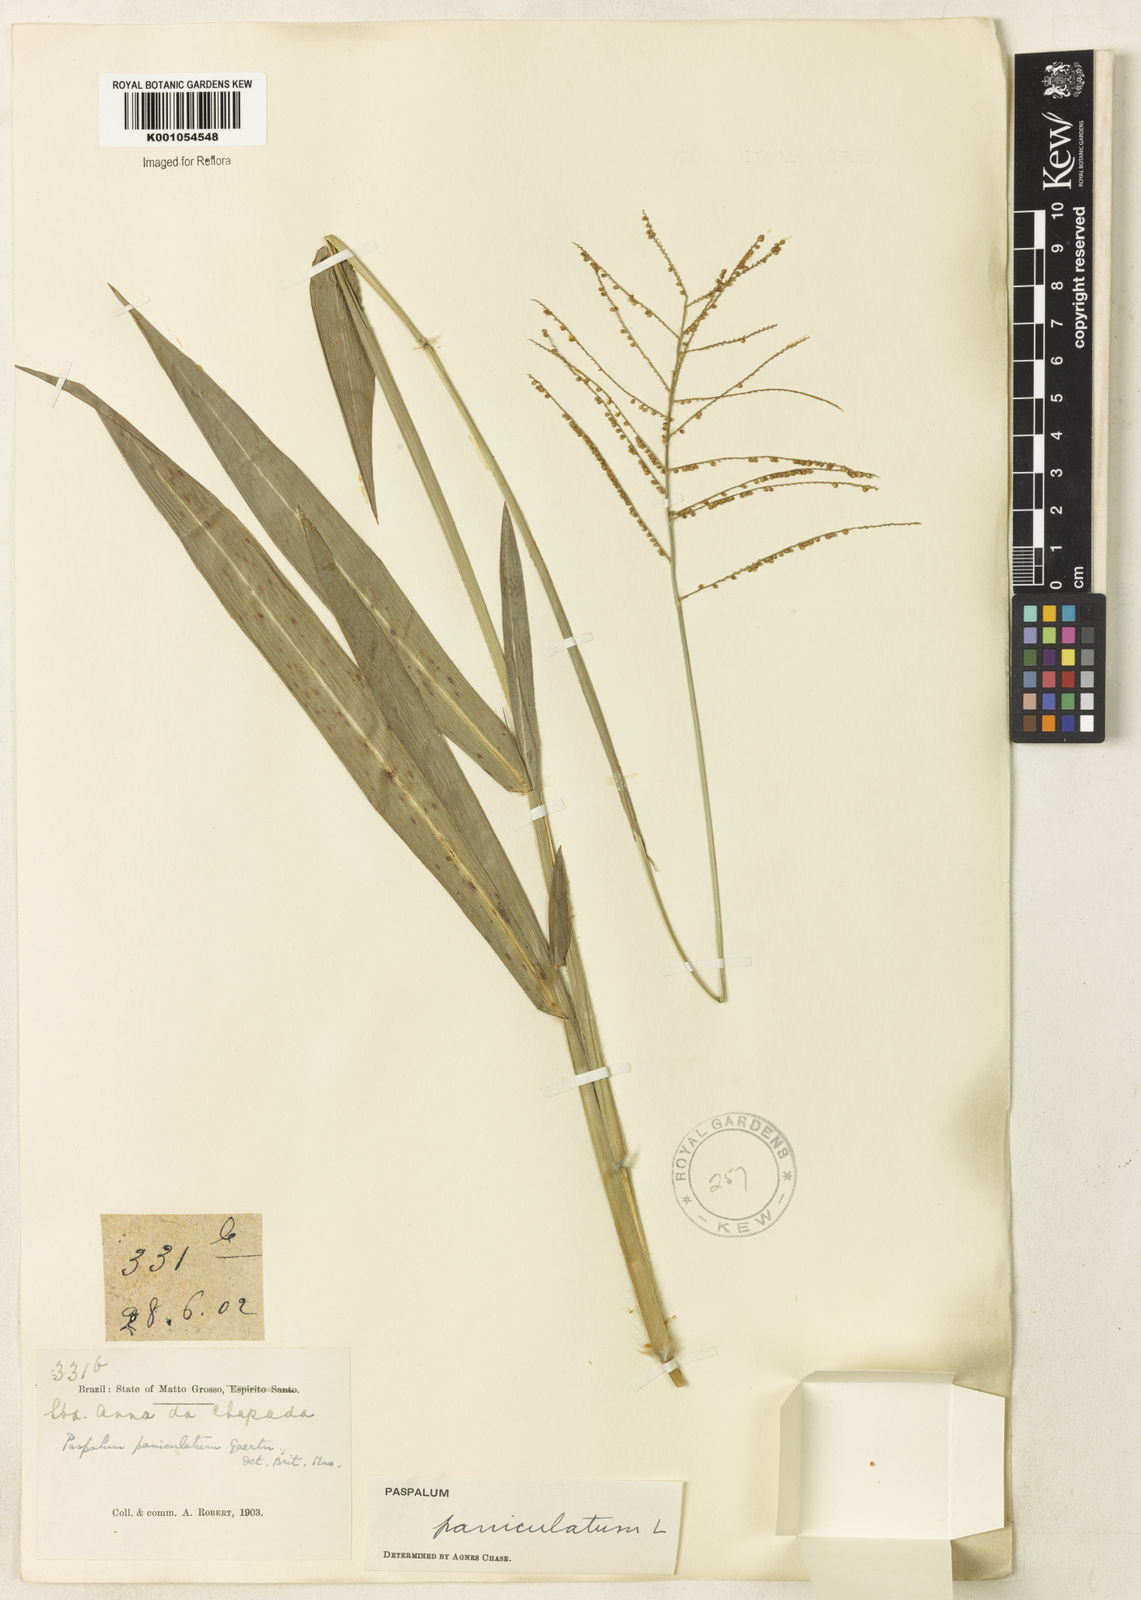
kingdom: Plantae
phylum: Tracheophyta
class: Liliopsida
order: Poales
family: Poaceae
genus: Paspalum
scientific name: Paspalum paniculatum
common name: Arrocillo
